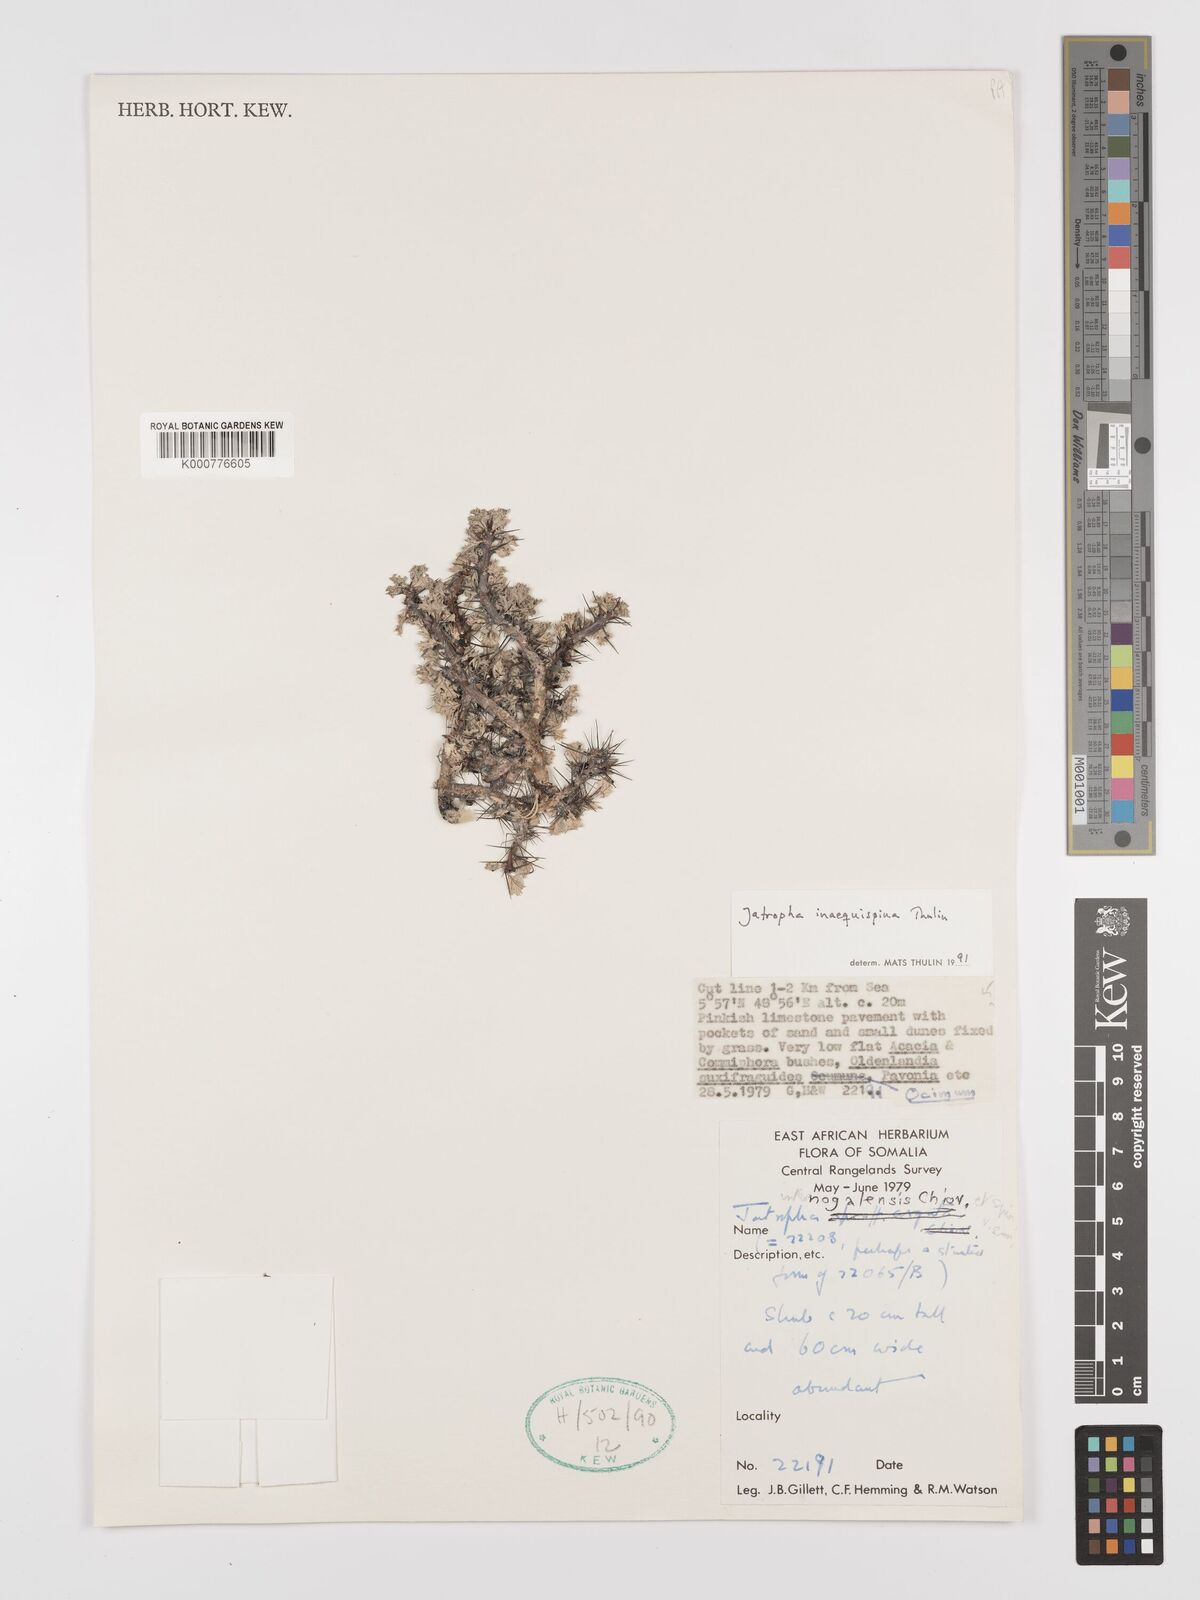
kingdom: Plantae
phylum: Tracheophyta
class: Magnoliopsida
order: Malpighiales
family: Euphorbiaceae
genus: Jatropha
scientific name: Jatropha inaequispina
